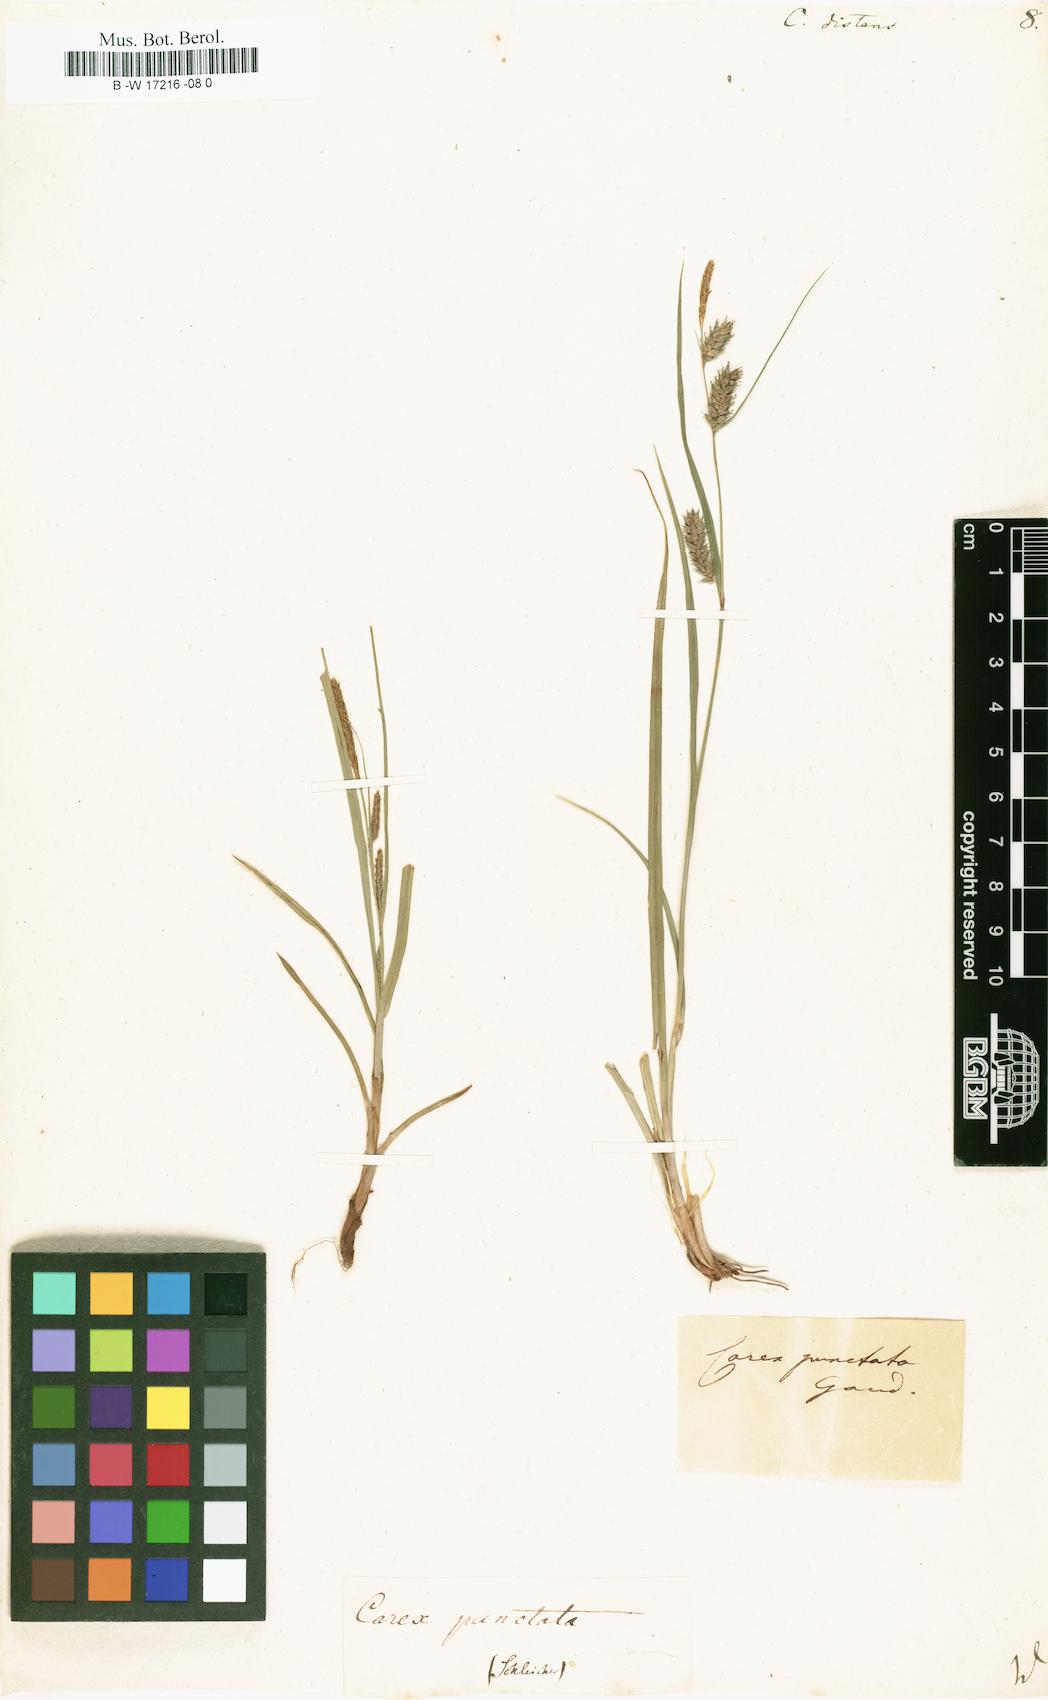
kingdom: Plantae
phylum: Tracheophyta
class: Liliopsida
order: Poales
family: Cyperaceae
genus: Carex
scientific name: Carex distans
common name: Distant sedge
